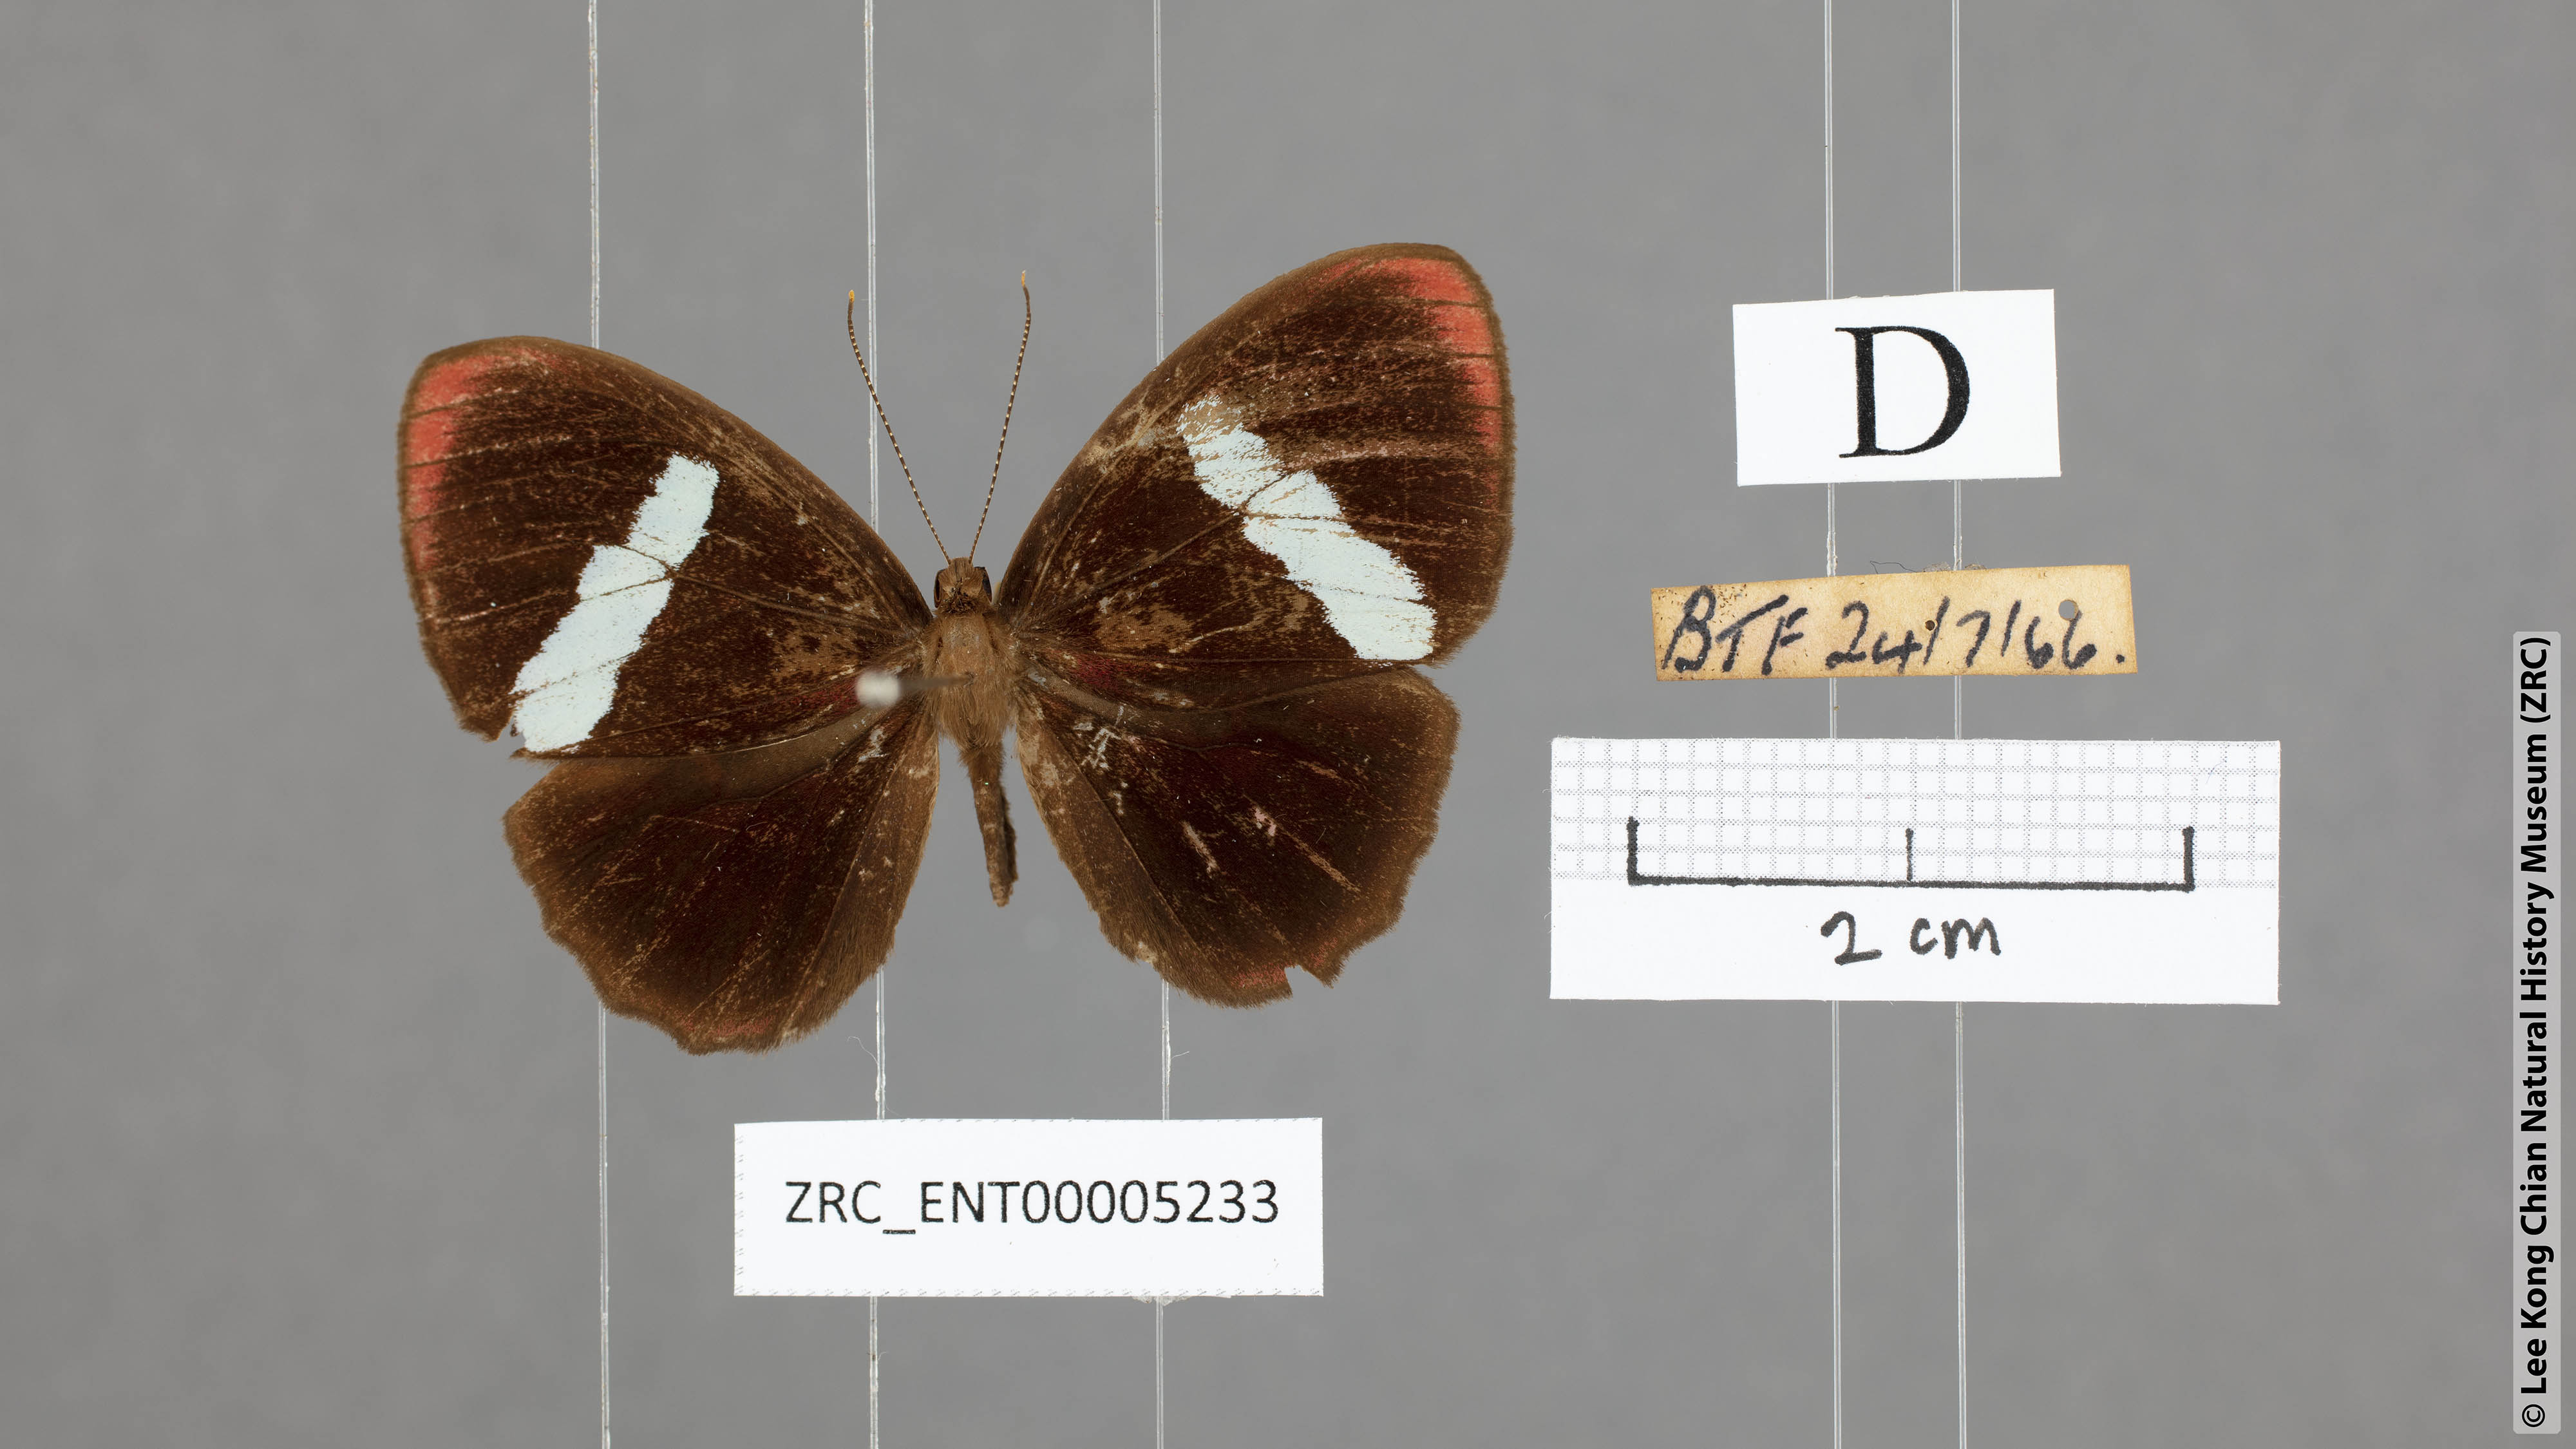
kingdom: Animalia
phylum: Arthropoda
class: Insecta
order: Lepidoptera
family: Riodinidae
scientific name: Riodinidae
